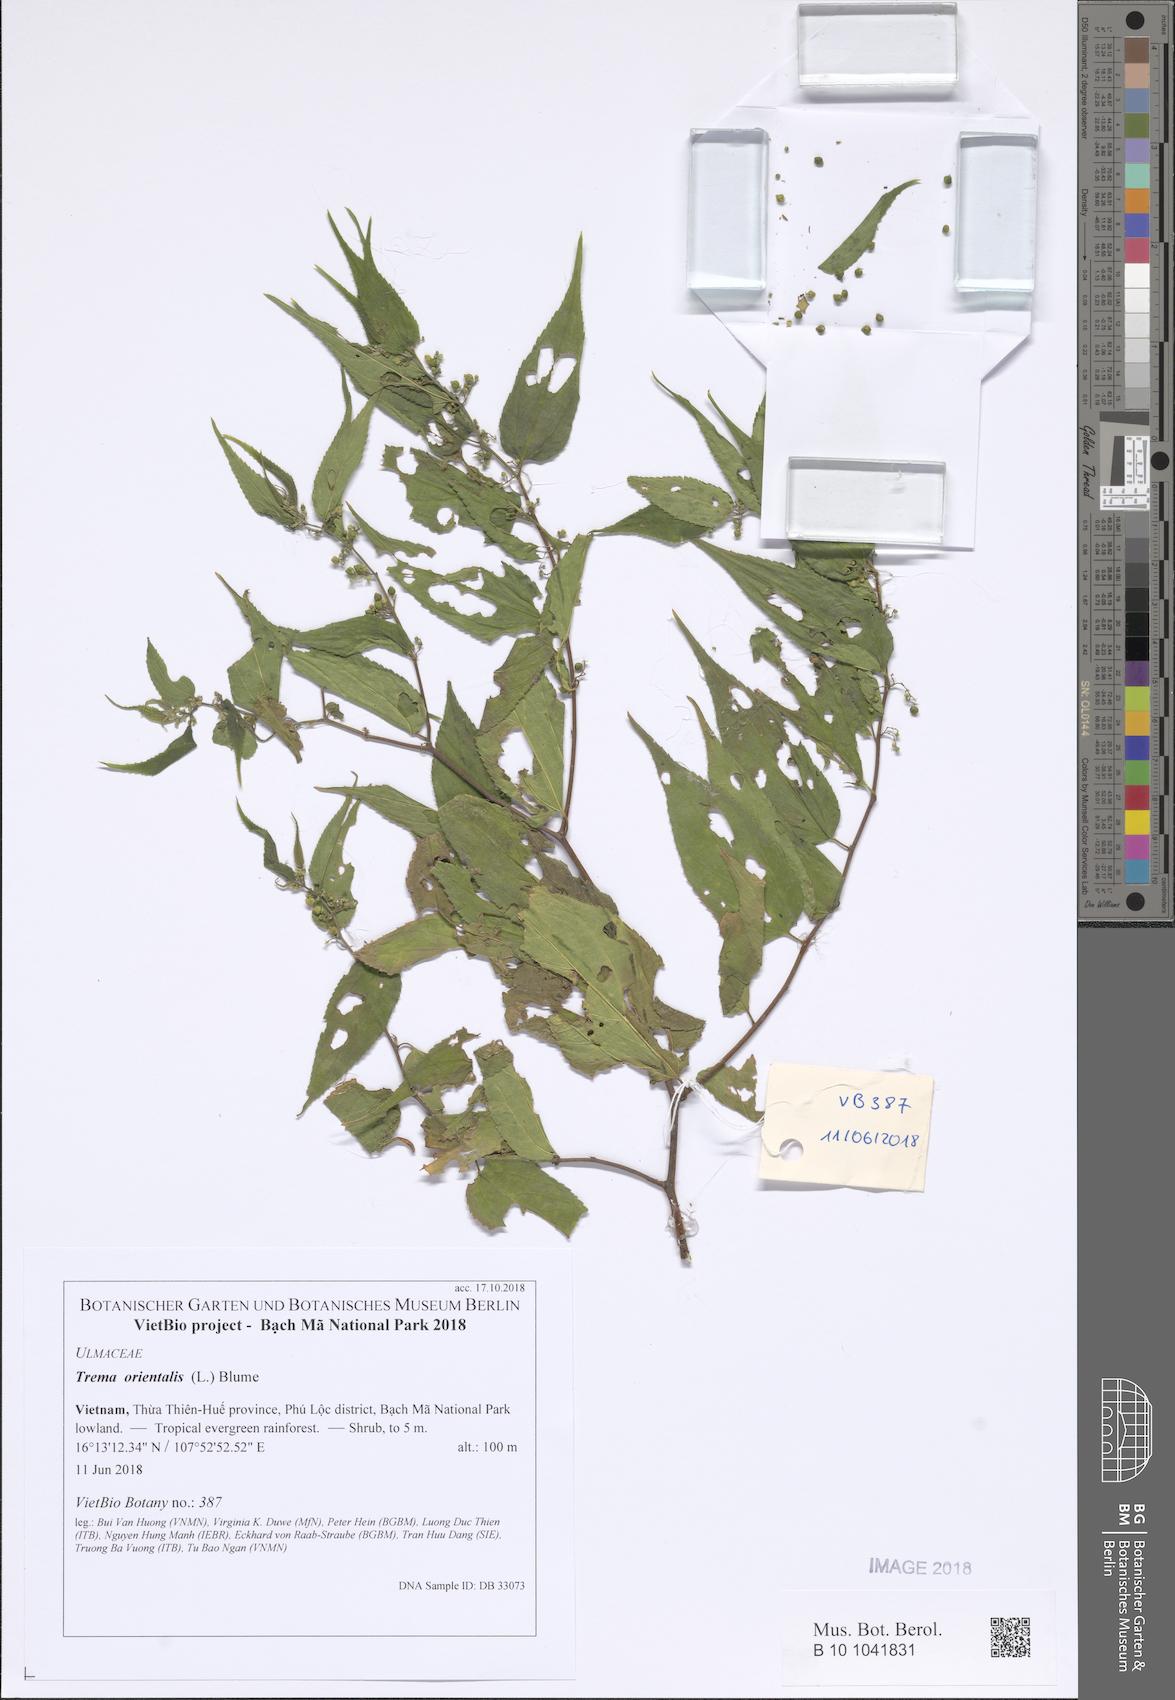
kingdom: Plantae
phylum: Tracheophyta
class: Magnoliopsida
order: Rosales
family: Cannabaceae
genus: Trema
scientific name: Trema orientale
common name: Indian charcoal tree
